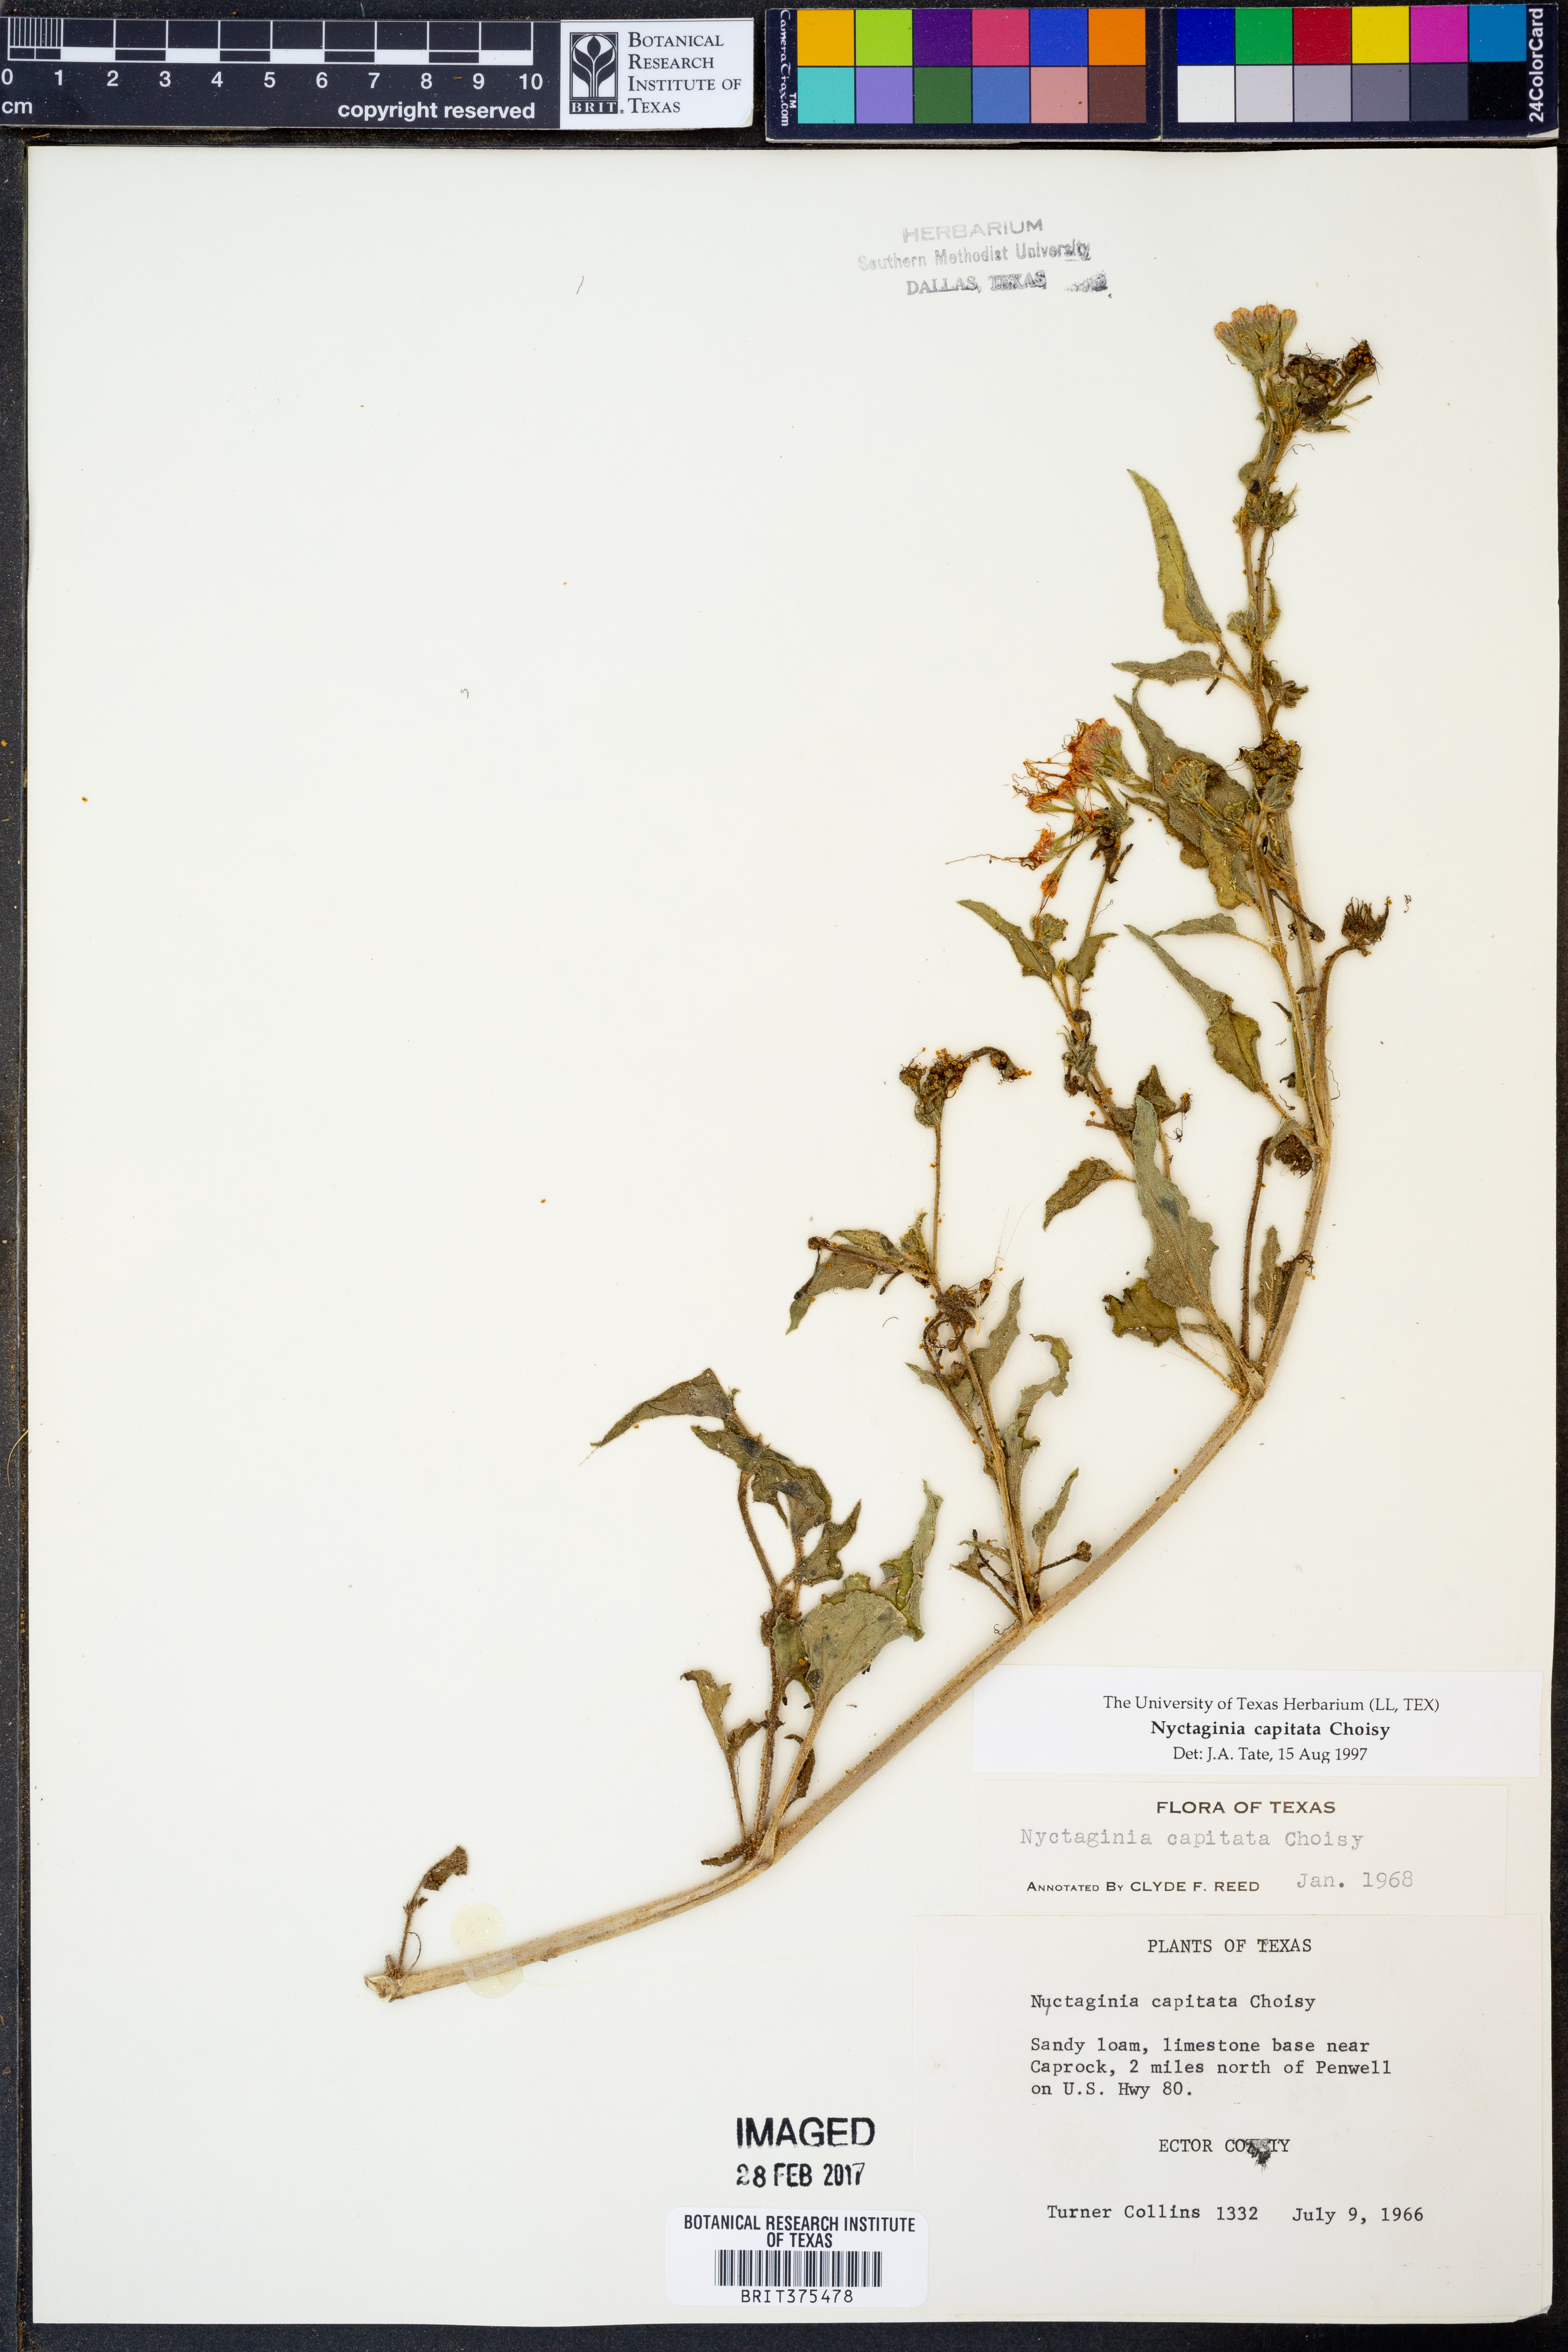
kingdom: Plantae
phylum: Tracheophyta
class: Magnoliopsida
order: Caryophyllales
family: Nyctaginaceae
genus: Nyctaginia
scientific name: Nyctaginia capitata
